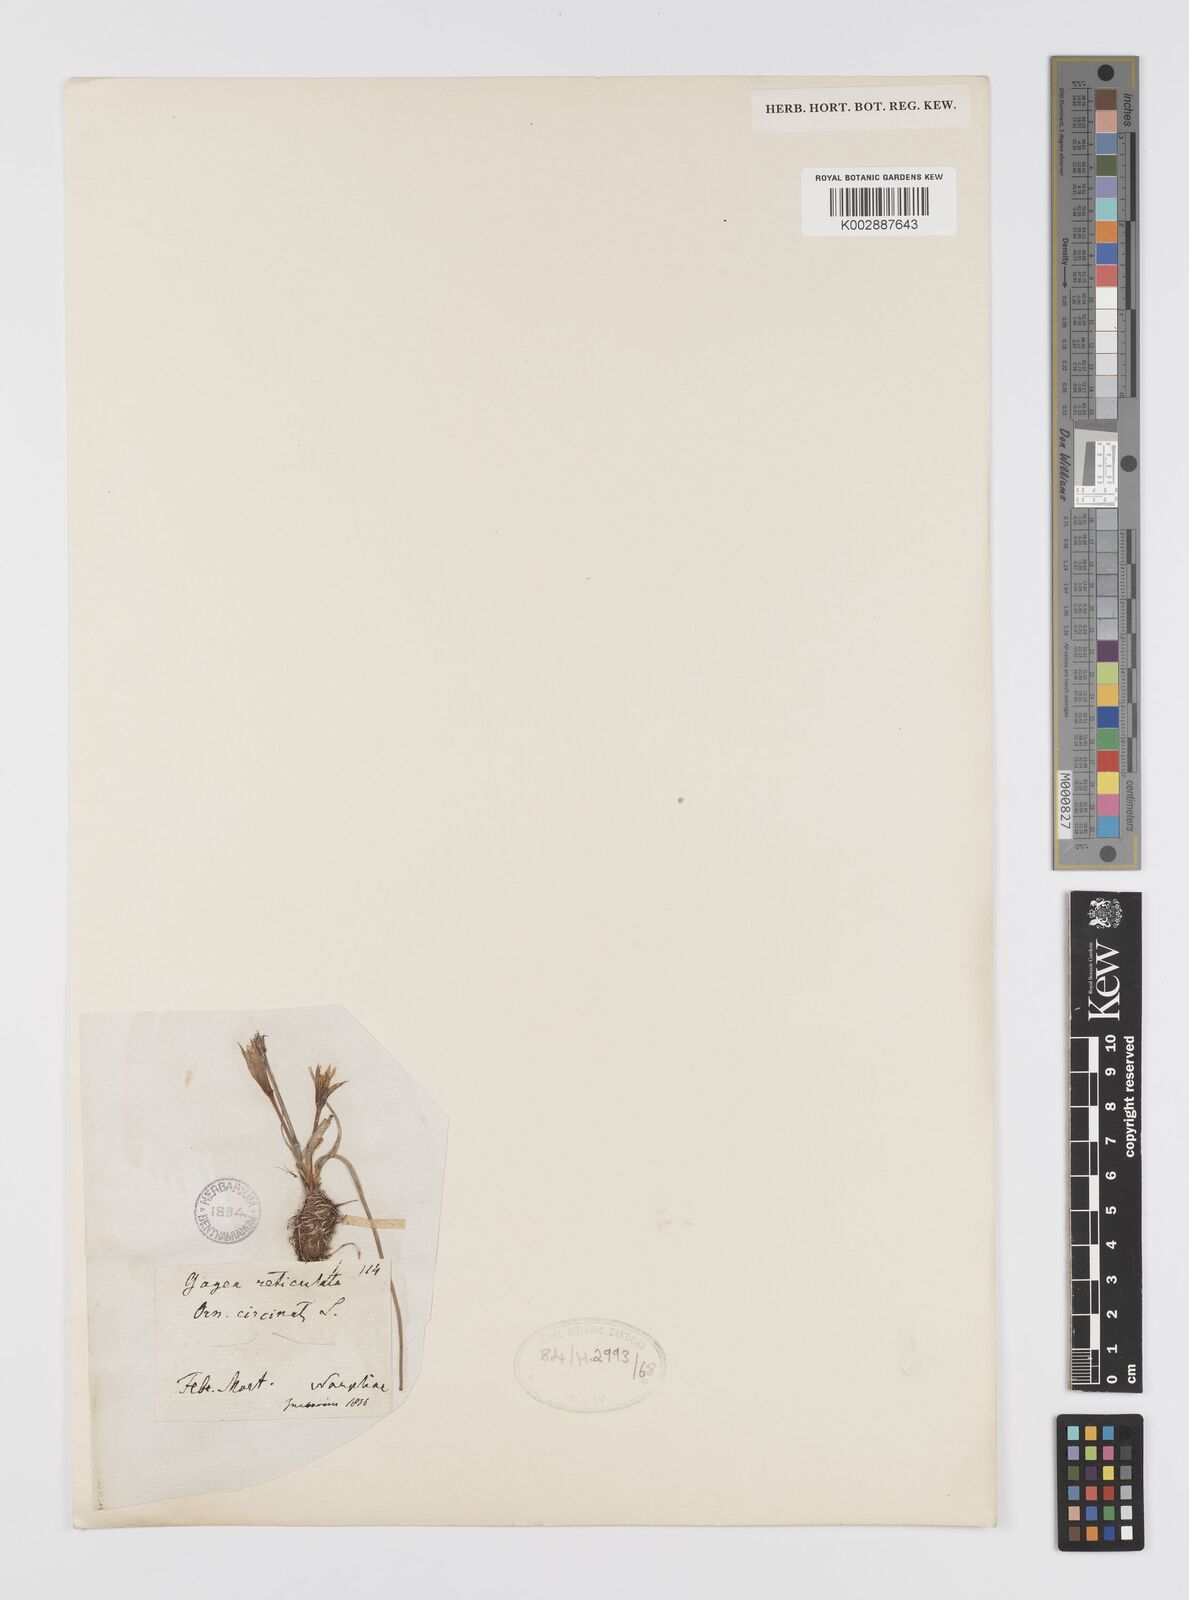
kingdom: Plantae
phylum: Tracheophyta
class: Liliopsida
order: Liliales
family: Liliaceae
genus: Gagea
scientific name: Gagea reticulata
